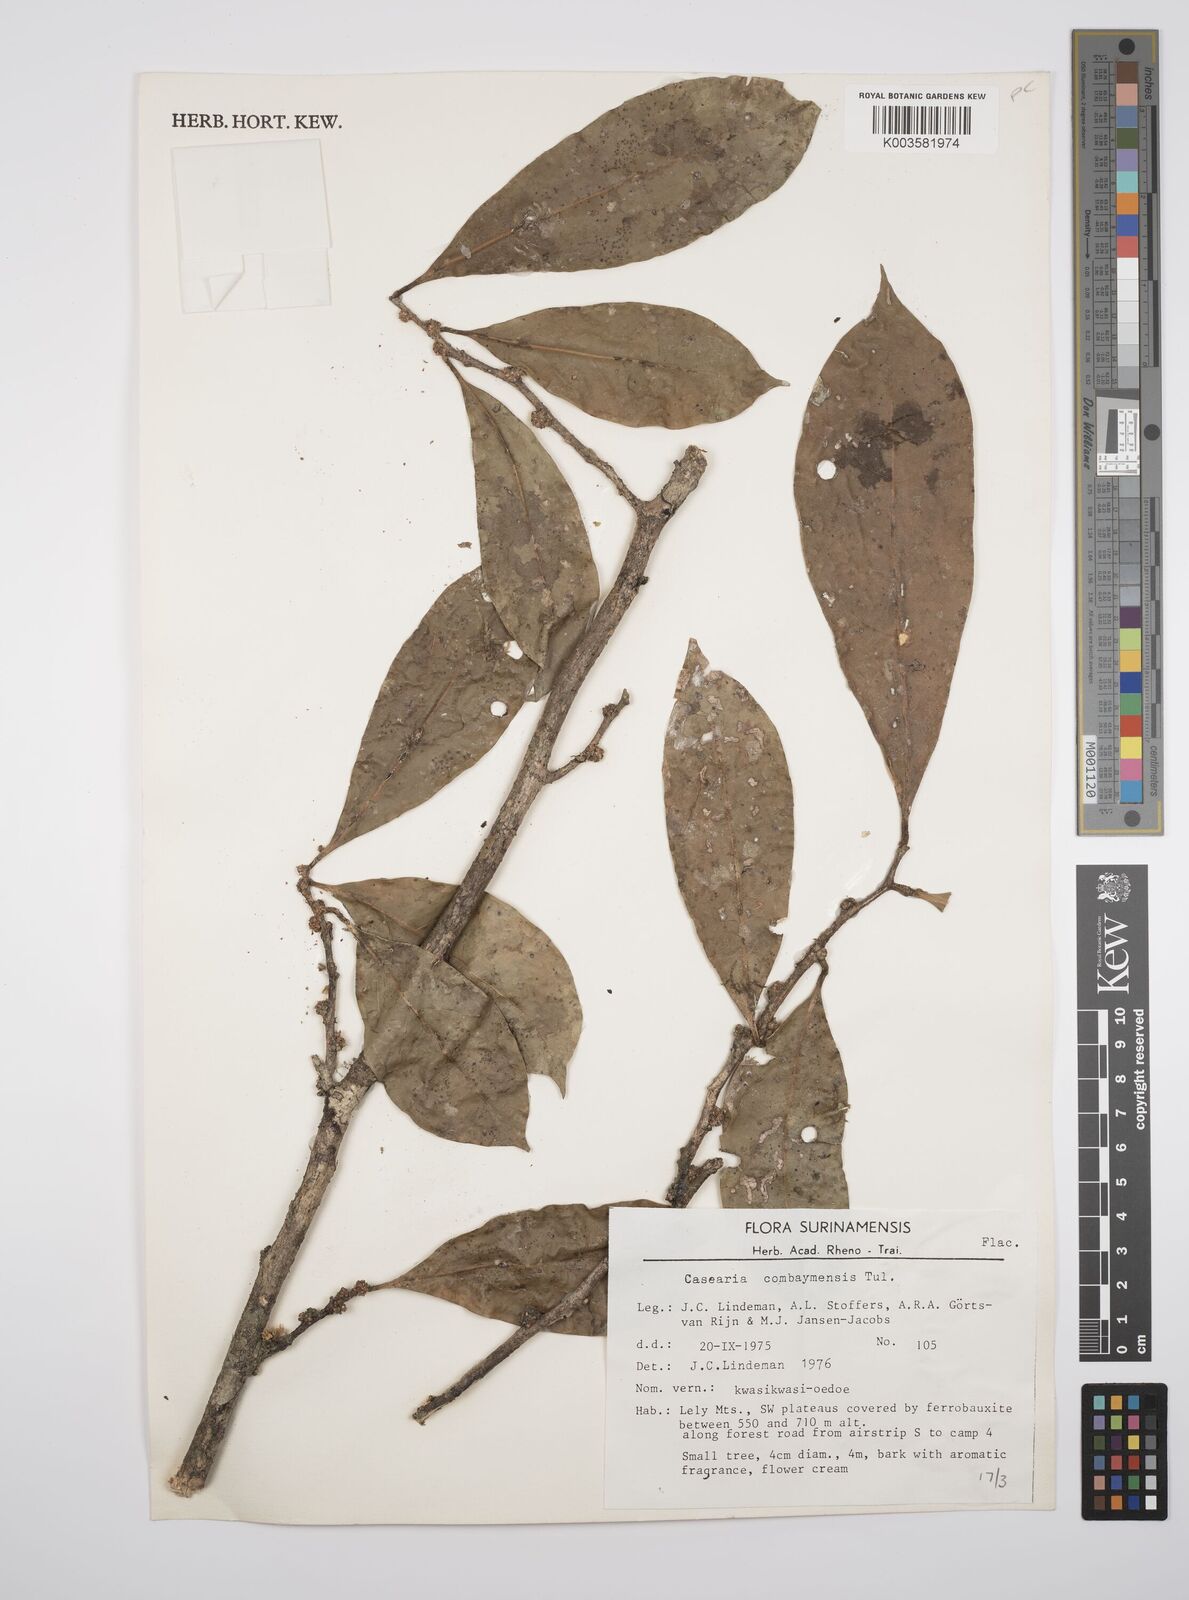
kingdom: Plantae
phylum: Tracheophyta
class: Magnoliopsida
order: Malpighiales
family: Salicaceae
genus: Casearia
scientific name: Casearia combaymensis
